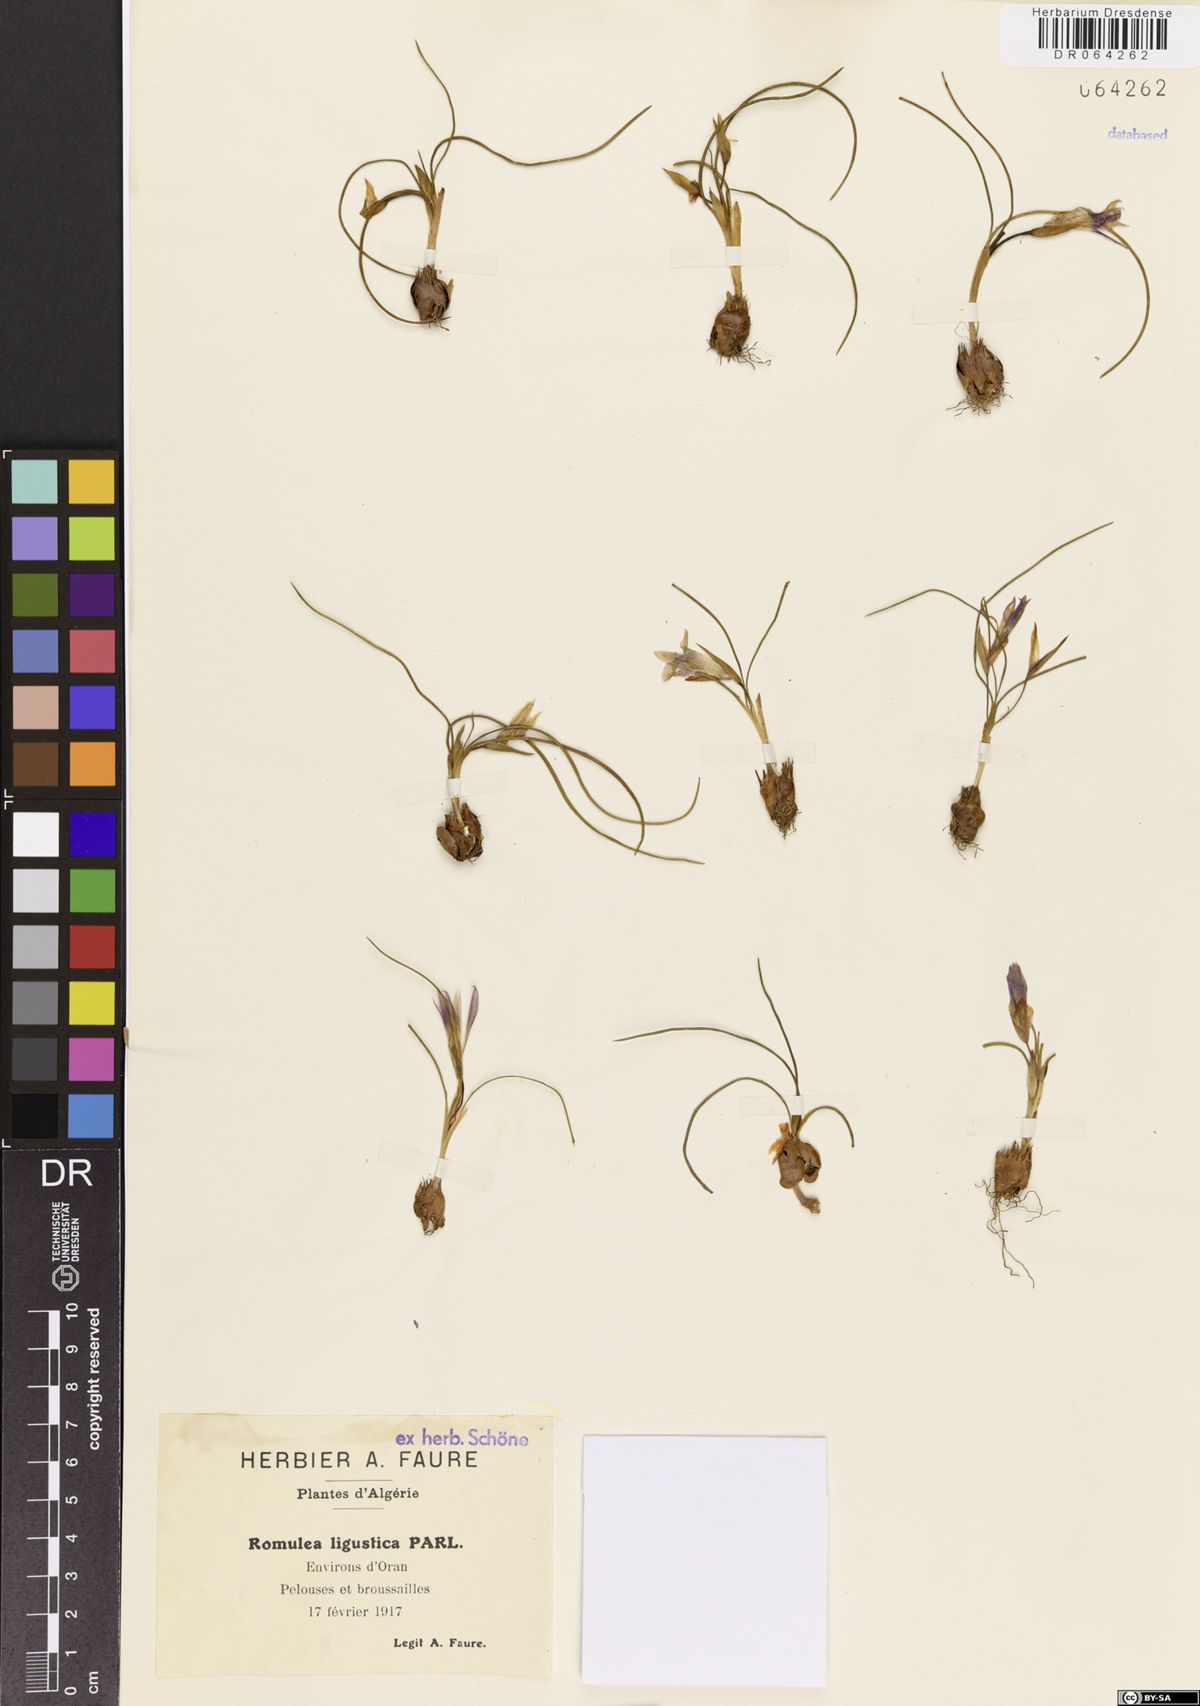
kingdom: Plantae
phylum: Tracheophyta
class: Liliopsida
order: Asparagales
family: Iridaceae
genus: Romulea
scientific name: Romulea ligustica
